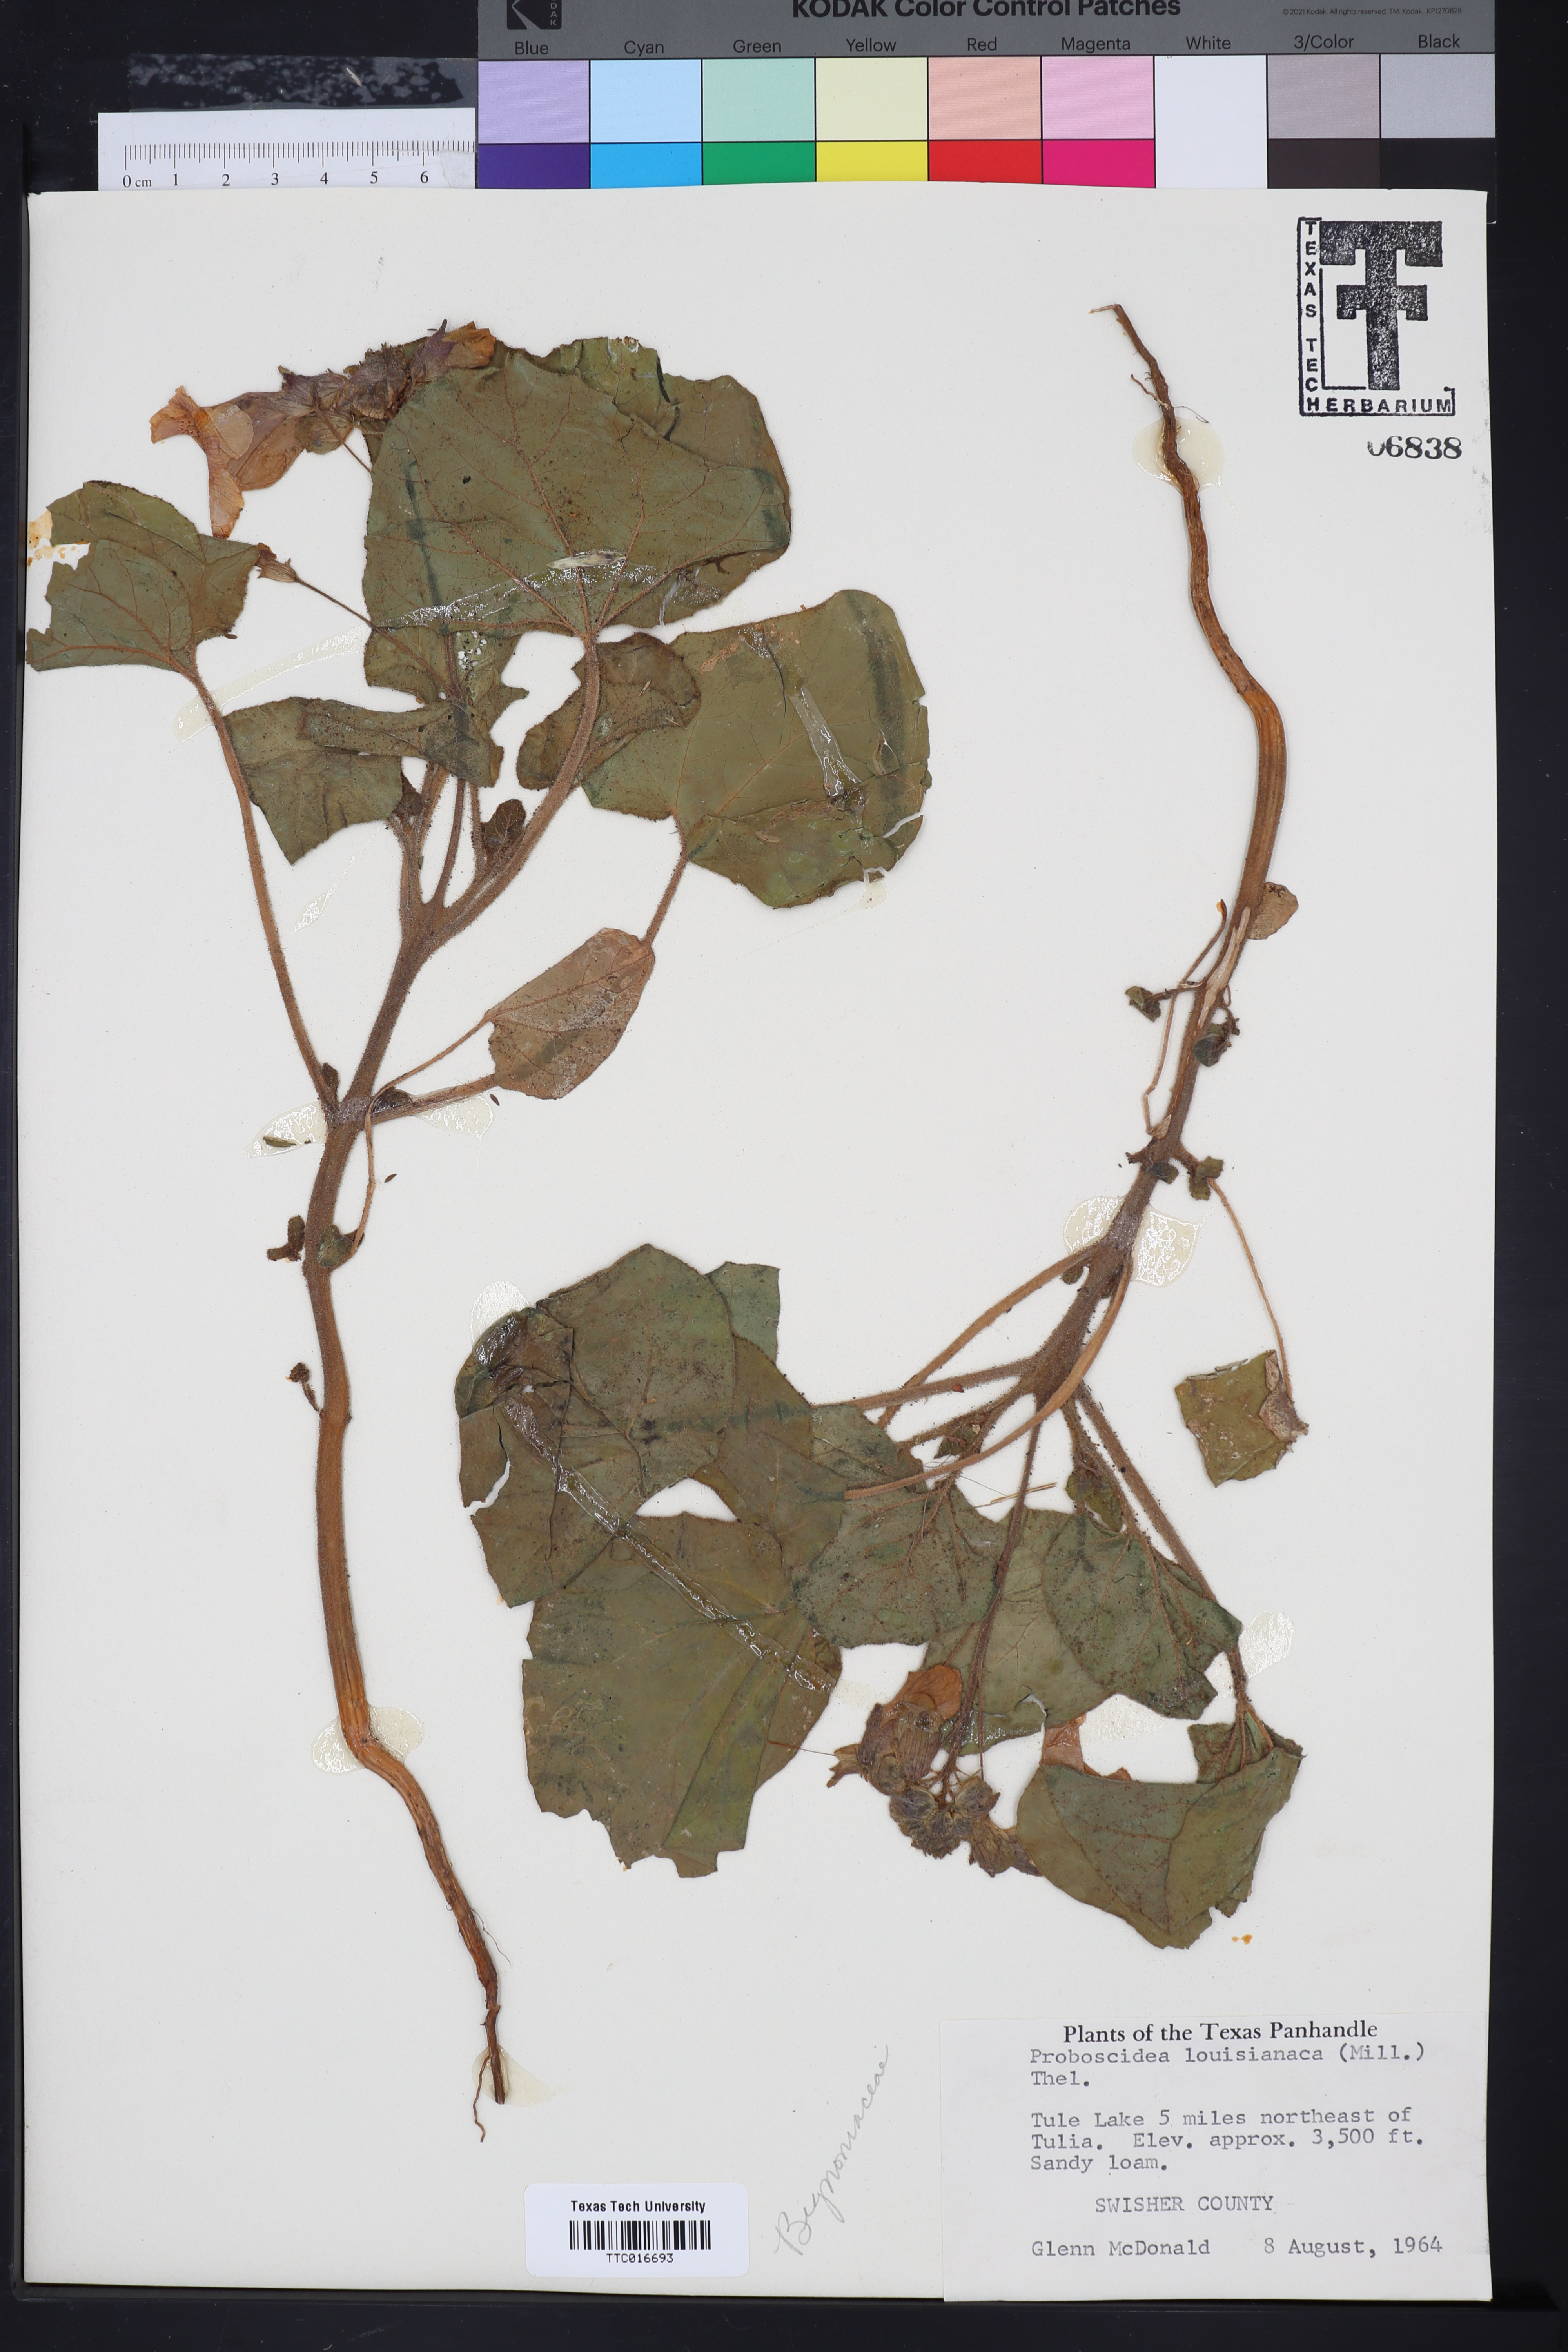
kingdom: Plantae
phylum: Tracheophyta
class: Magnoliopsida
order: Lamiales
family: Martyniaceae
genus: Proboscidea
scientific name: Proboscidea louisianica
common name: Elephant tusks
